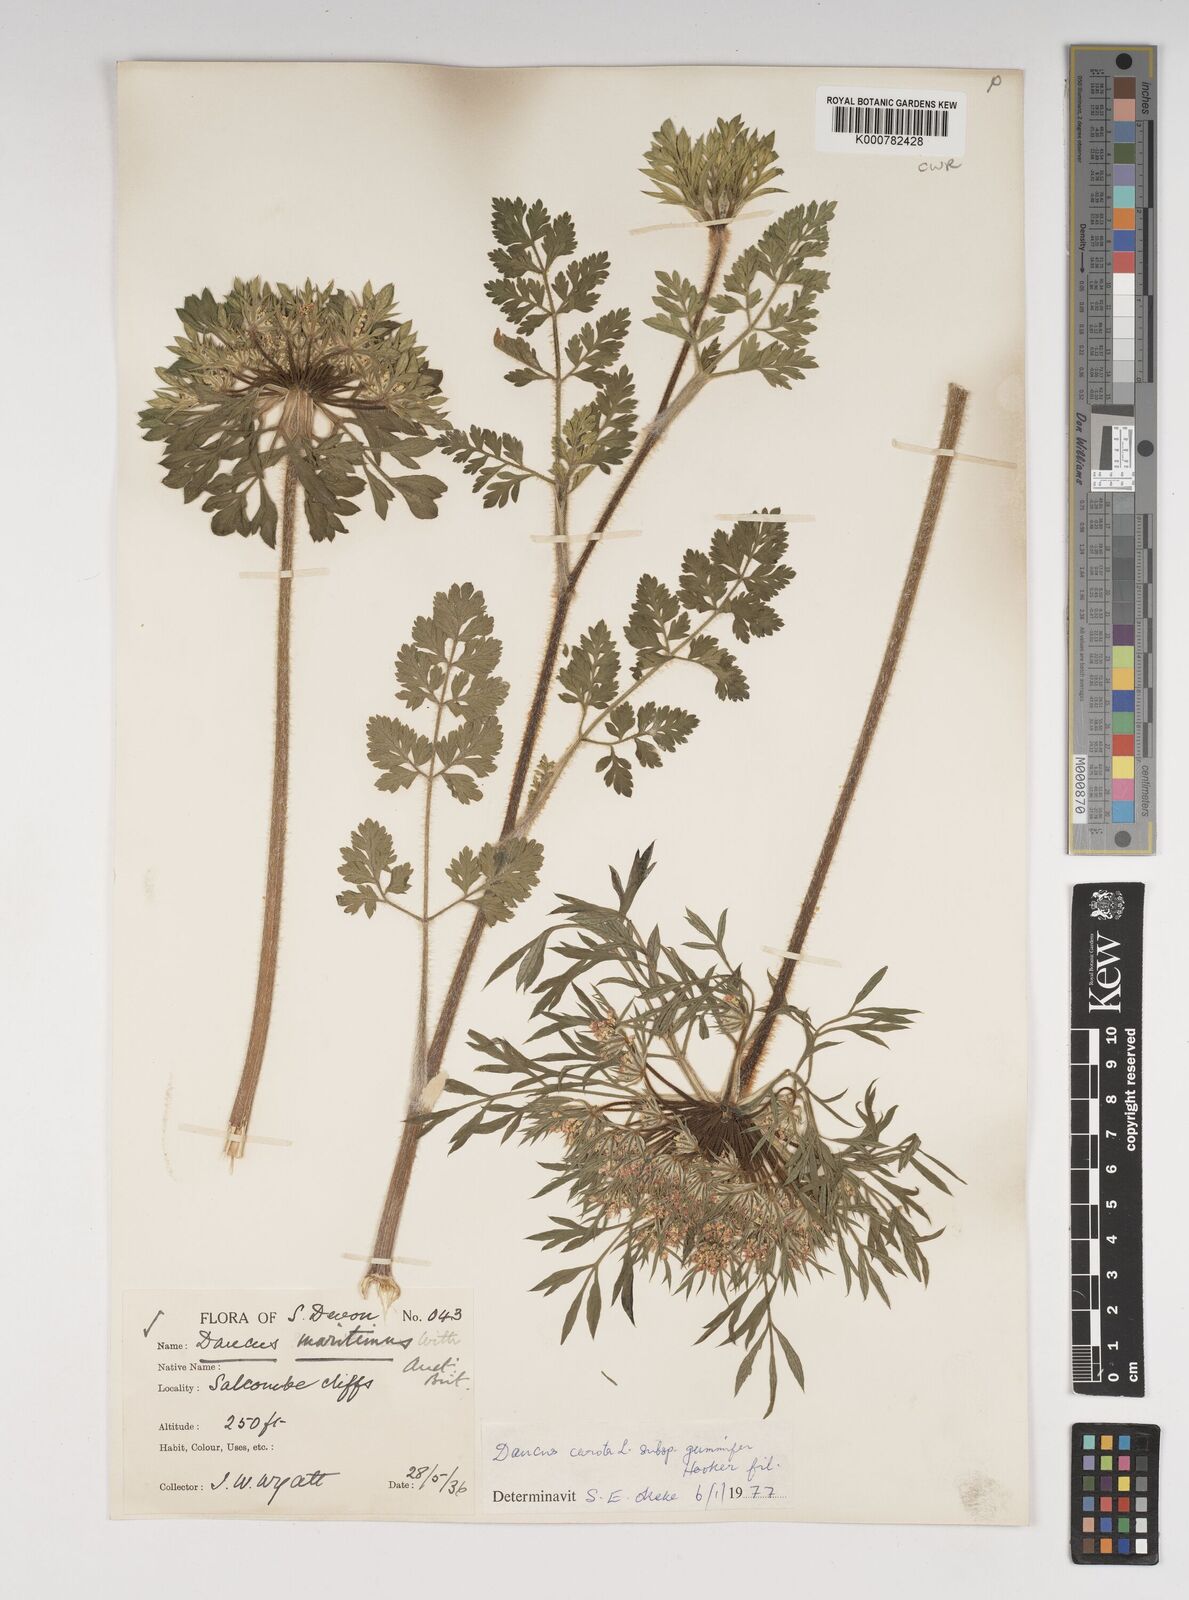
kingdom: Plantae
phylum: Tracheophyta
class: Magnoliopsida
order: Apiales
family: Apiaceae
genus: Daucus
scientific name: Daucus carota
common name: Wild carrot
